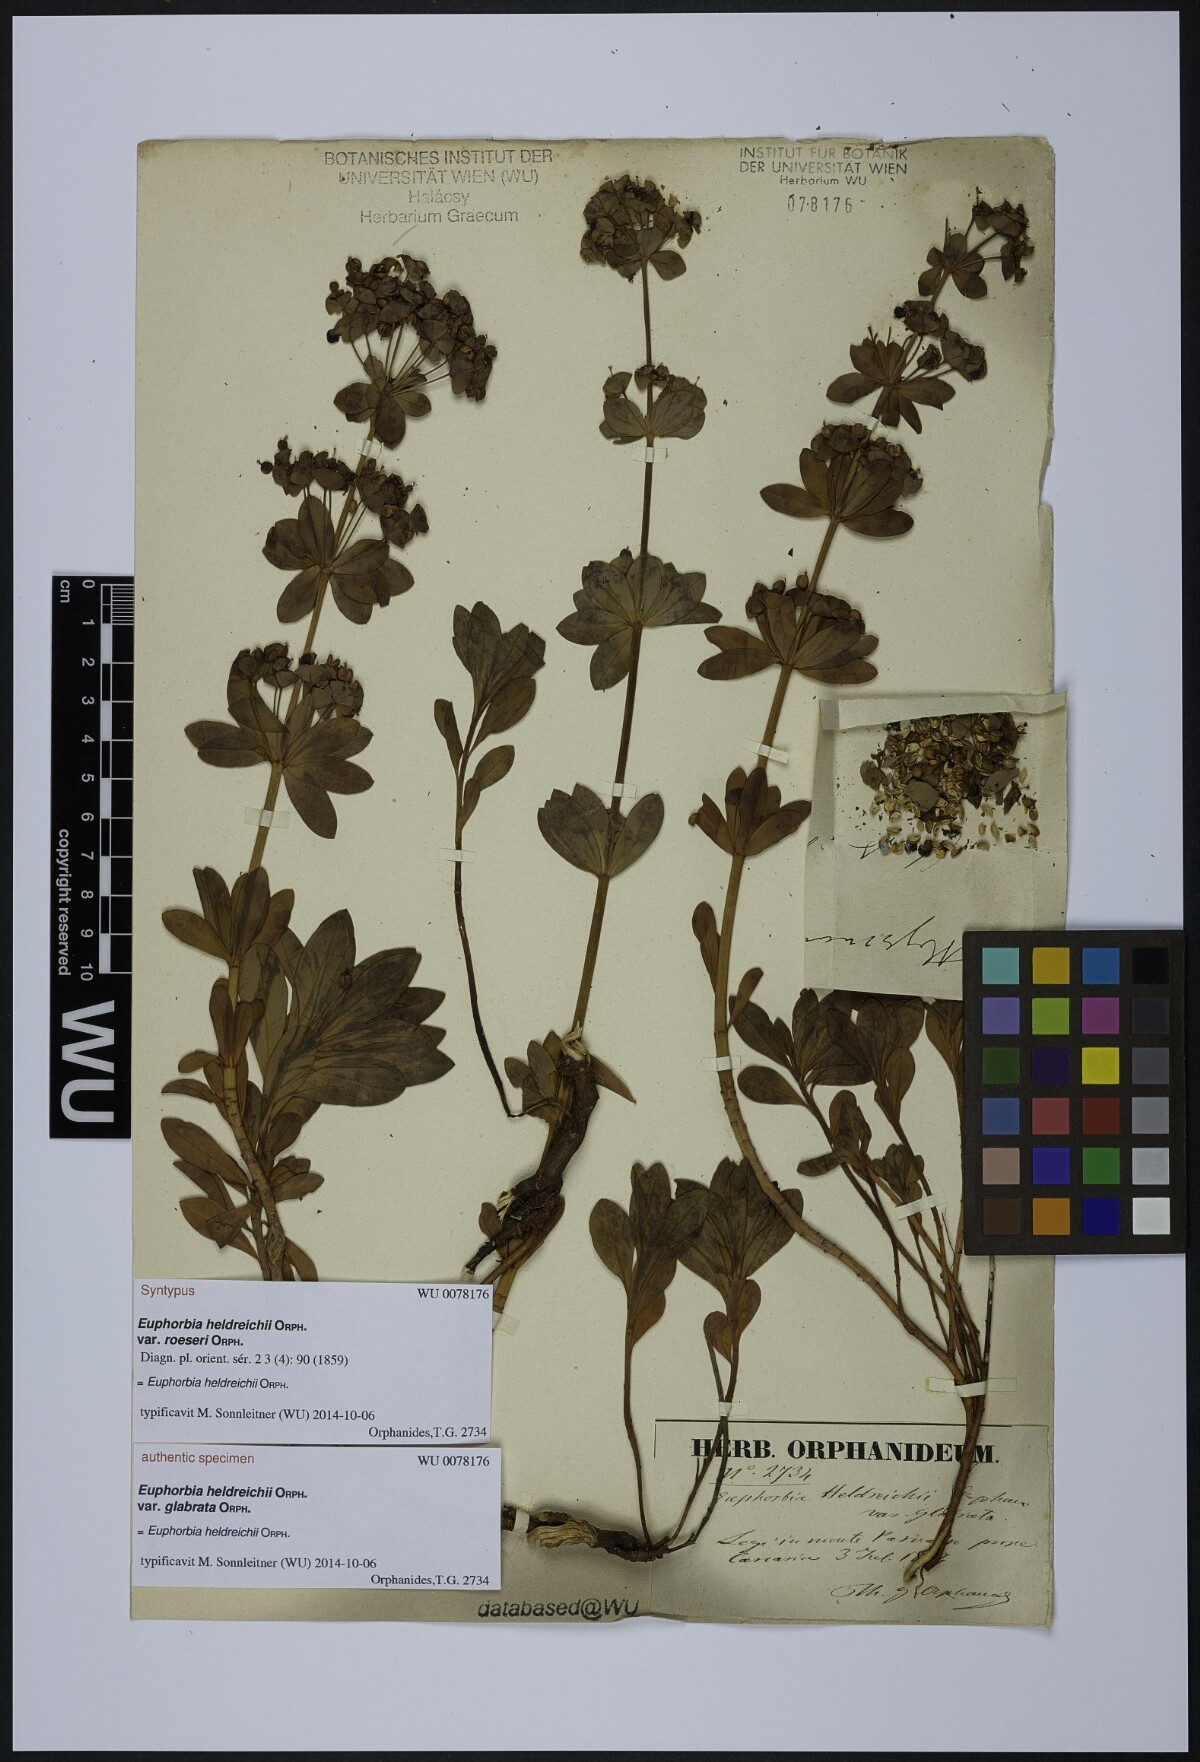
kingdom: Plantae
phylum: Tracheophyta
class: Magnoliopsida
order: Malpighiales
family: Euphorbiaceae
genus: Euphorbia
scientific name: Euphorbia heldreichii
